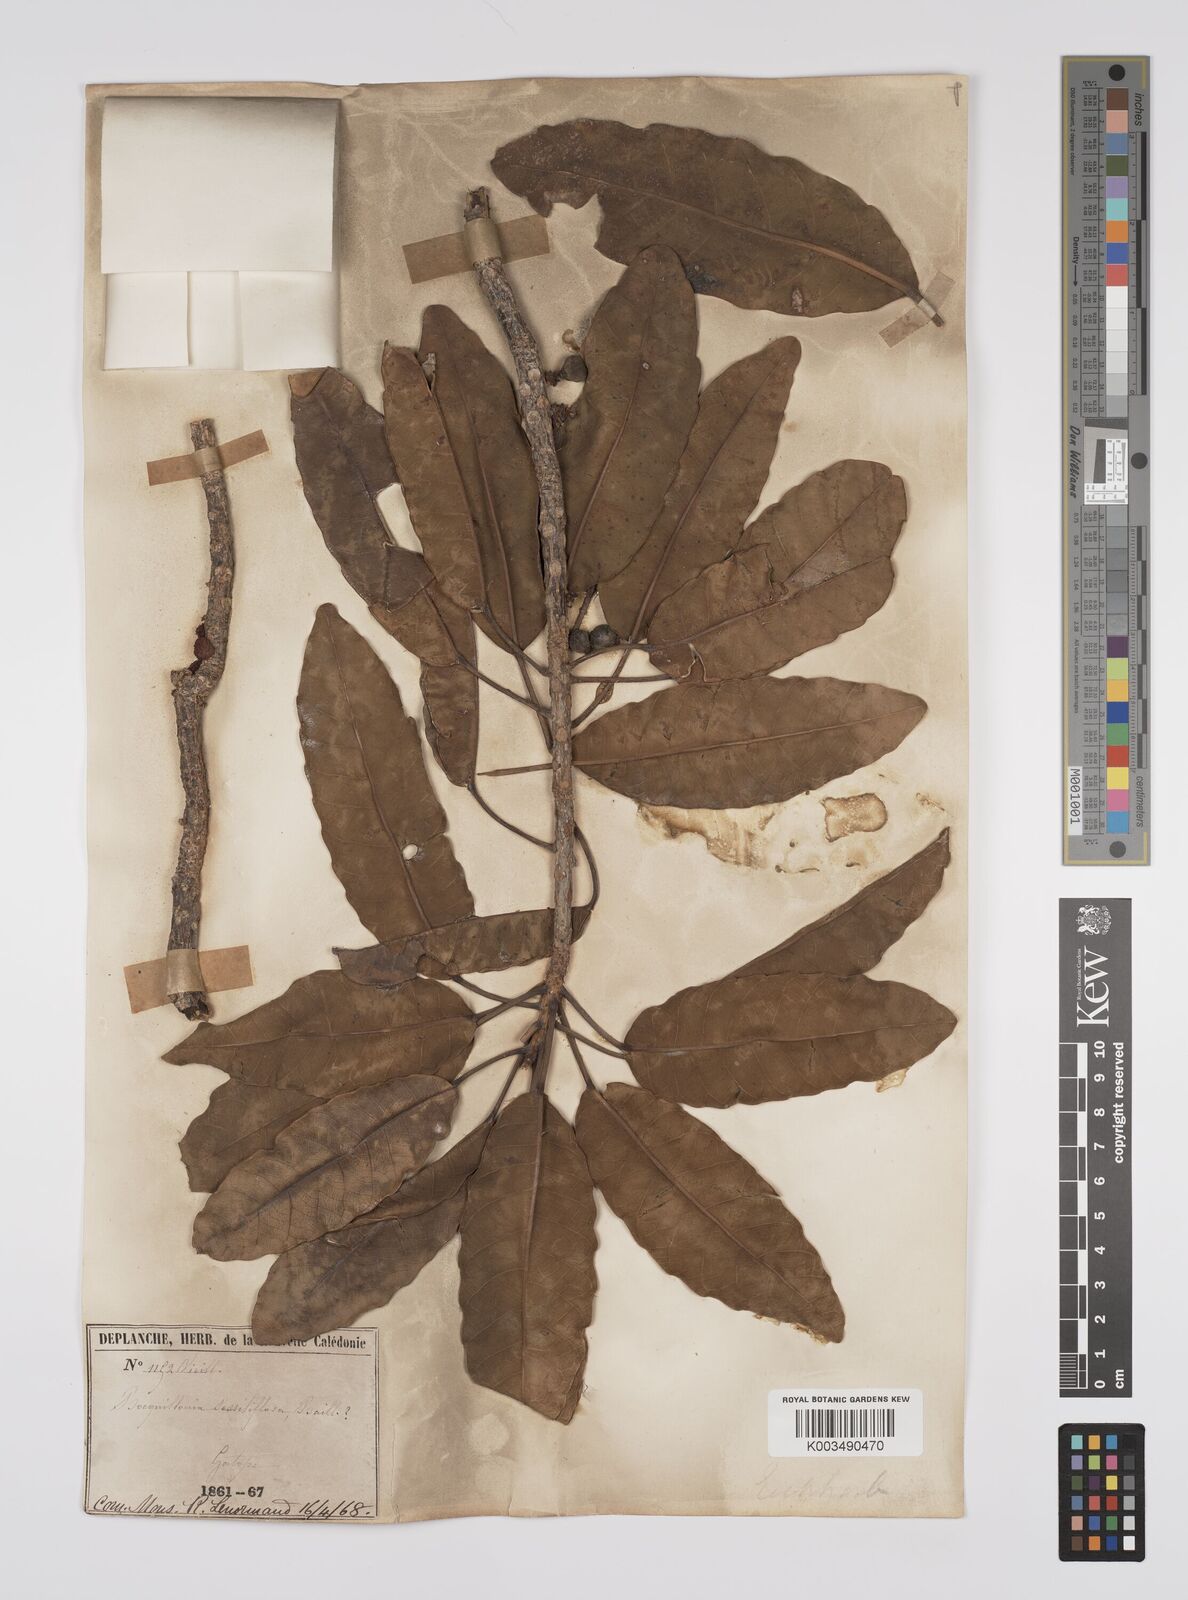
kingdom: Plantae
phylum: Tracheophyta
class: Magnoliopsida
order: Malpighiales
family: Euphorbiaceae
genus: Bocquillonia
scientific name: Bocquillonia sessiliflora
